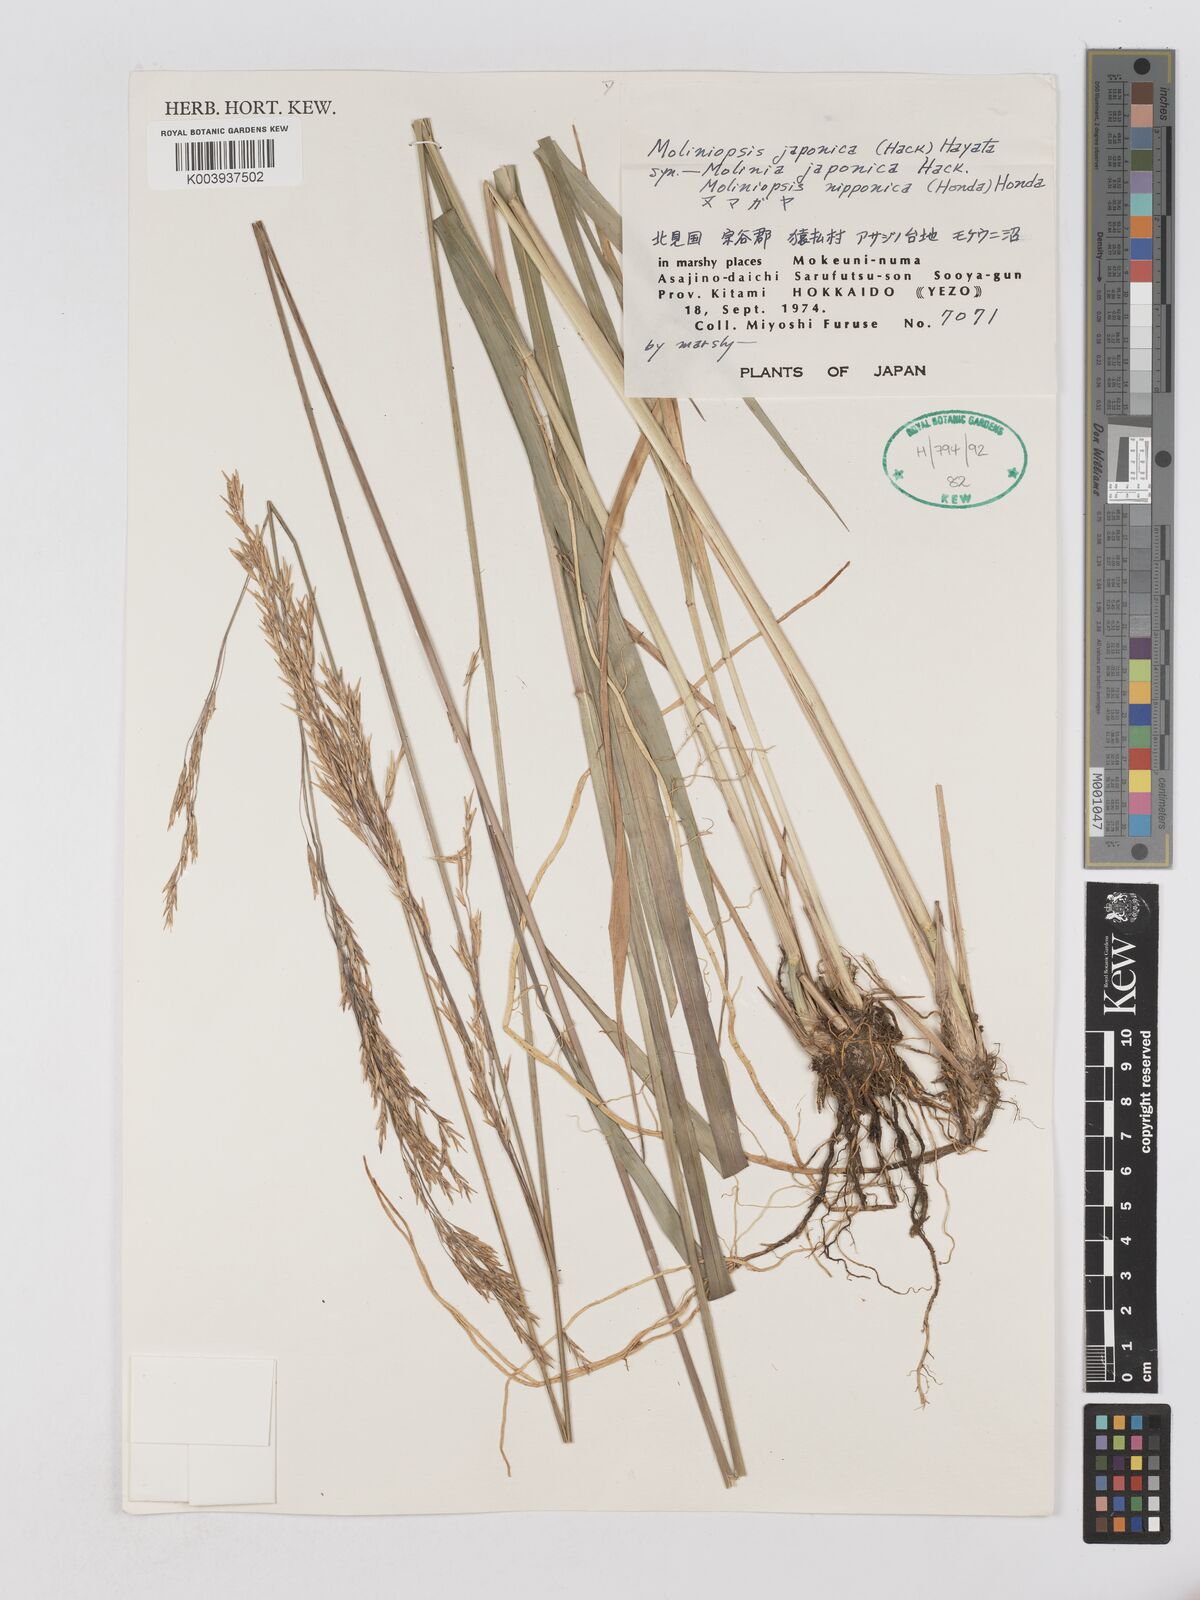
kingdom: Plantae
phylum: Tracheophyta
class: Liliopsida
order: Poales
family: Poaceae
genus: Moliniopsis
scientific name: Moliniopsis japonica
